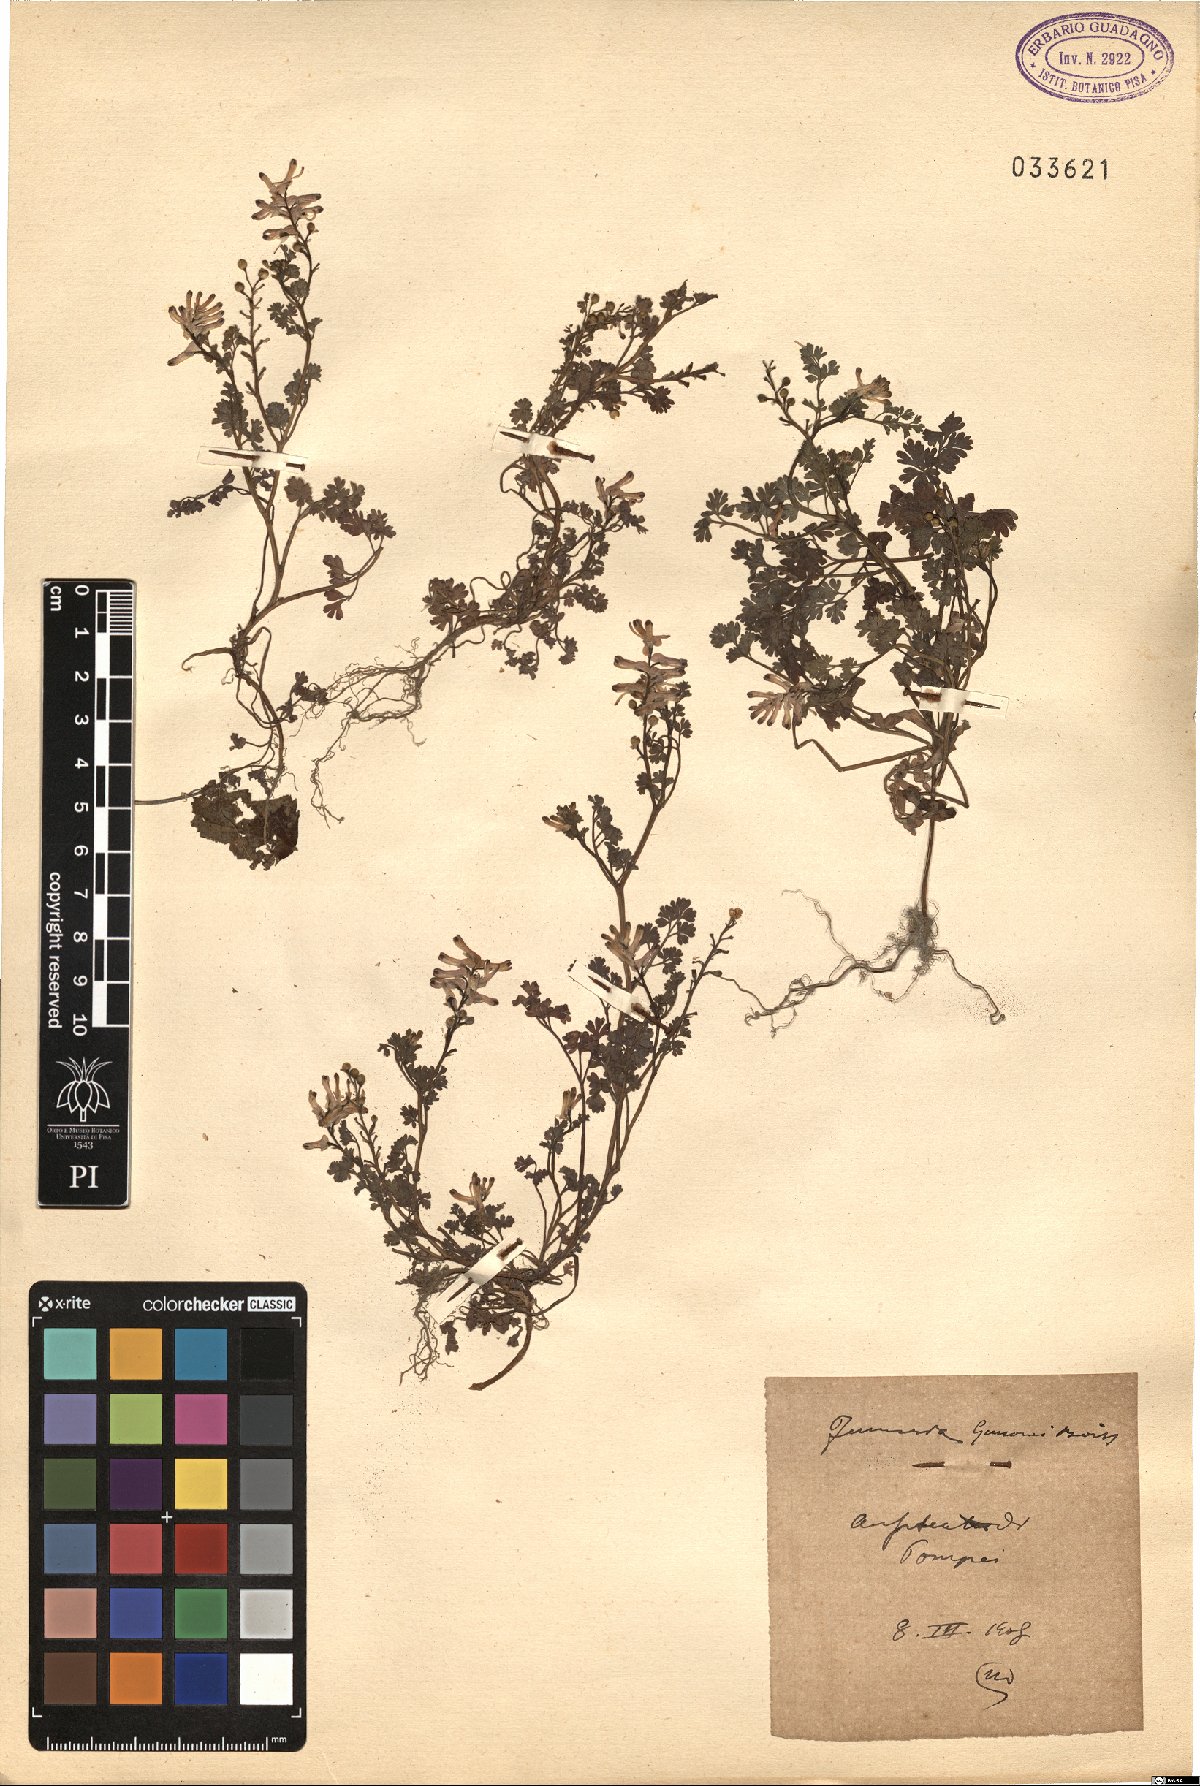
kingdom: Plantae
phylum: Tracheophyta
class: Magnoliopsida
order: Ranunculales
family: Papaveraceae
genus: Fumaria
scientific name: Fumaria bastardii
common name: Tall ramping-fumitory
